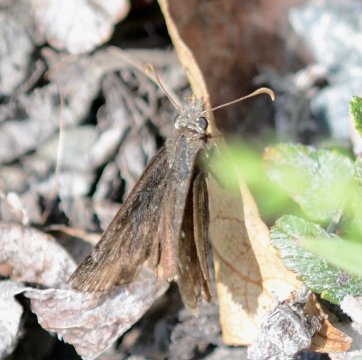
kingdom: Animalia
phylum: Arthropoda
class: Insecta
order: Lepidoptera
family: Hesperiidae
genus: Gesta
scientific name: Gesta
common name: Persius Duskywing
